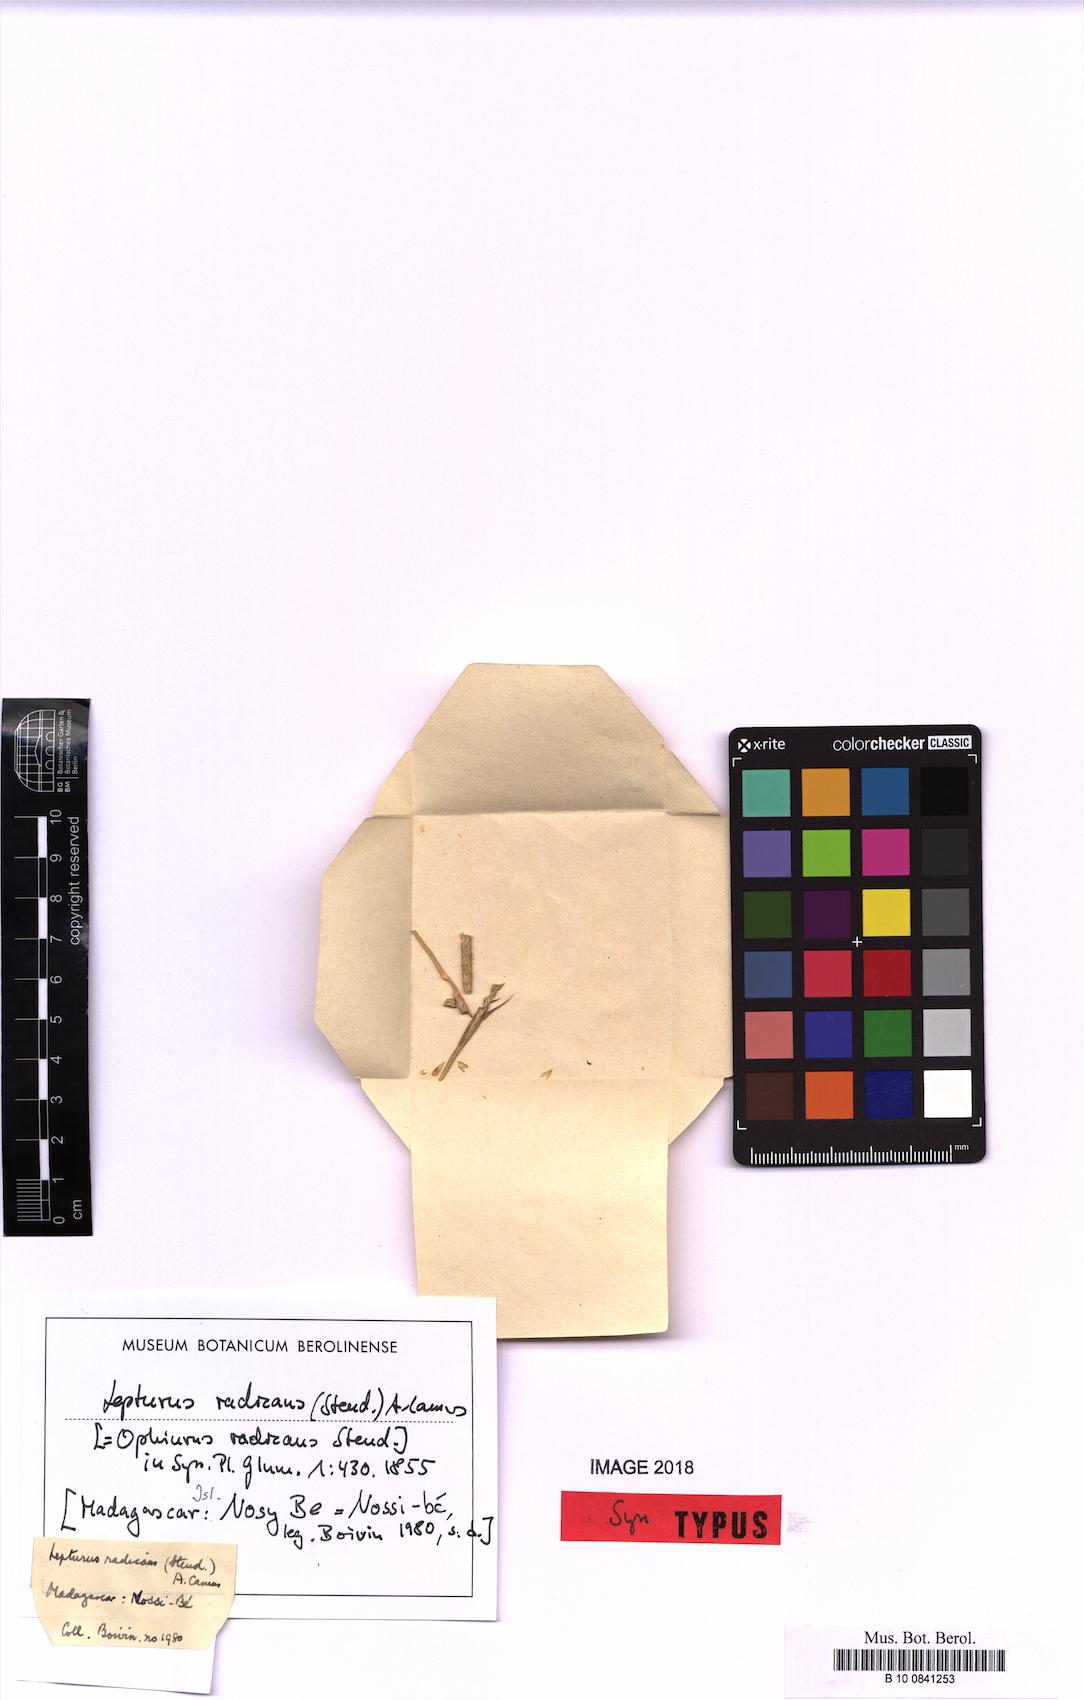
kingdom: Plantae
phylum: Tracheophyta
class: Liliopsida
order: Poales
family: Poaceae
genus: Lepturus
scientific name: Lepturus radicans
